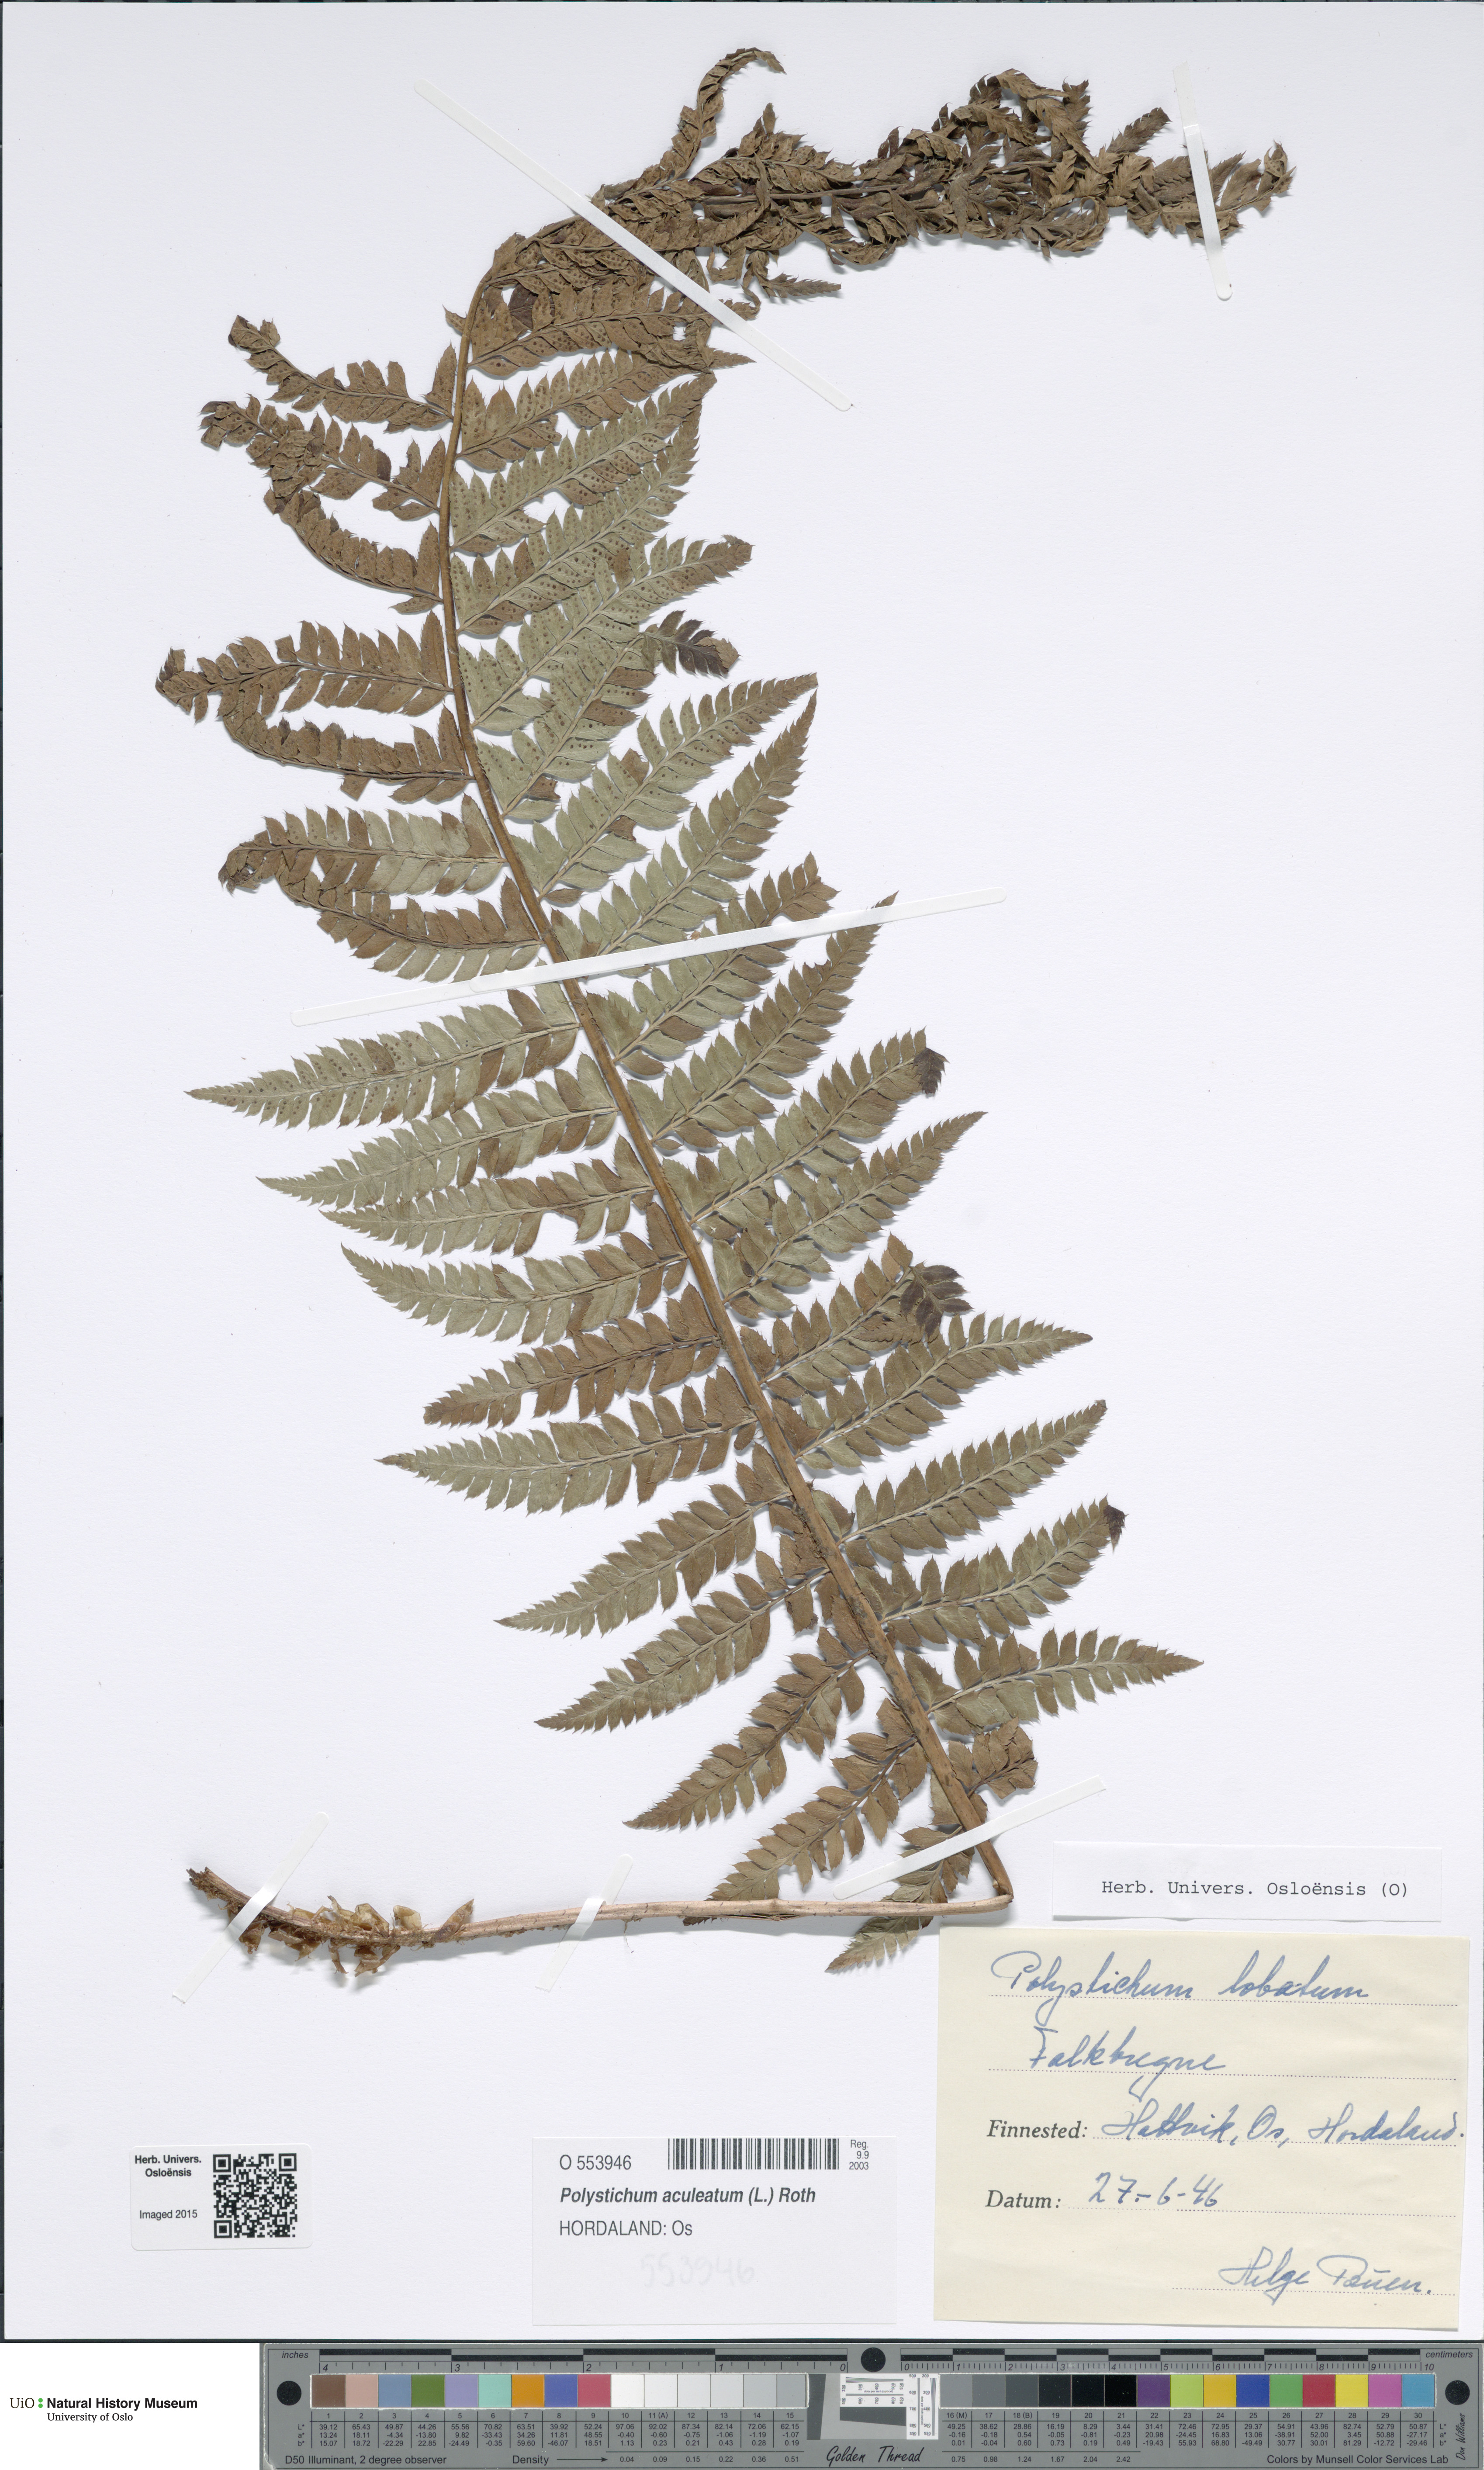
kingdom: Plantae
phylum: Tracheophyta
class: Polypodiopsida
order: Polypodiales
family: Dryopteridaceae
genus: Polystichum
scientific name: Polystichum aculeatum
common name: Hard shield-fern
